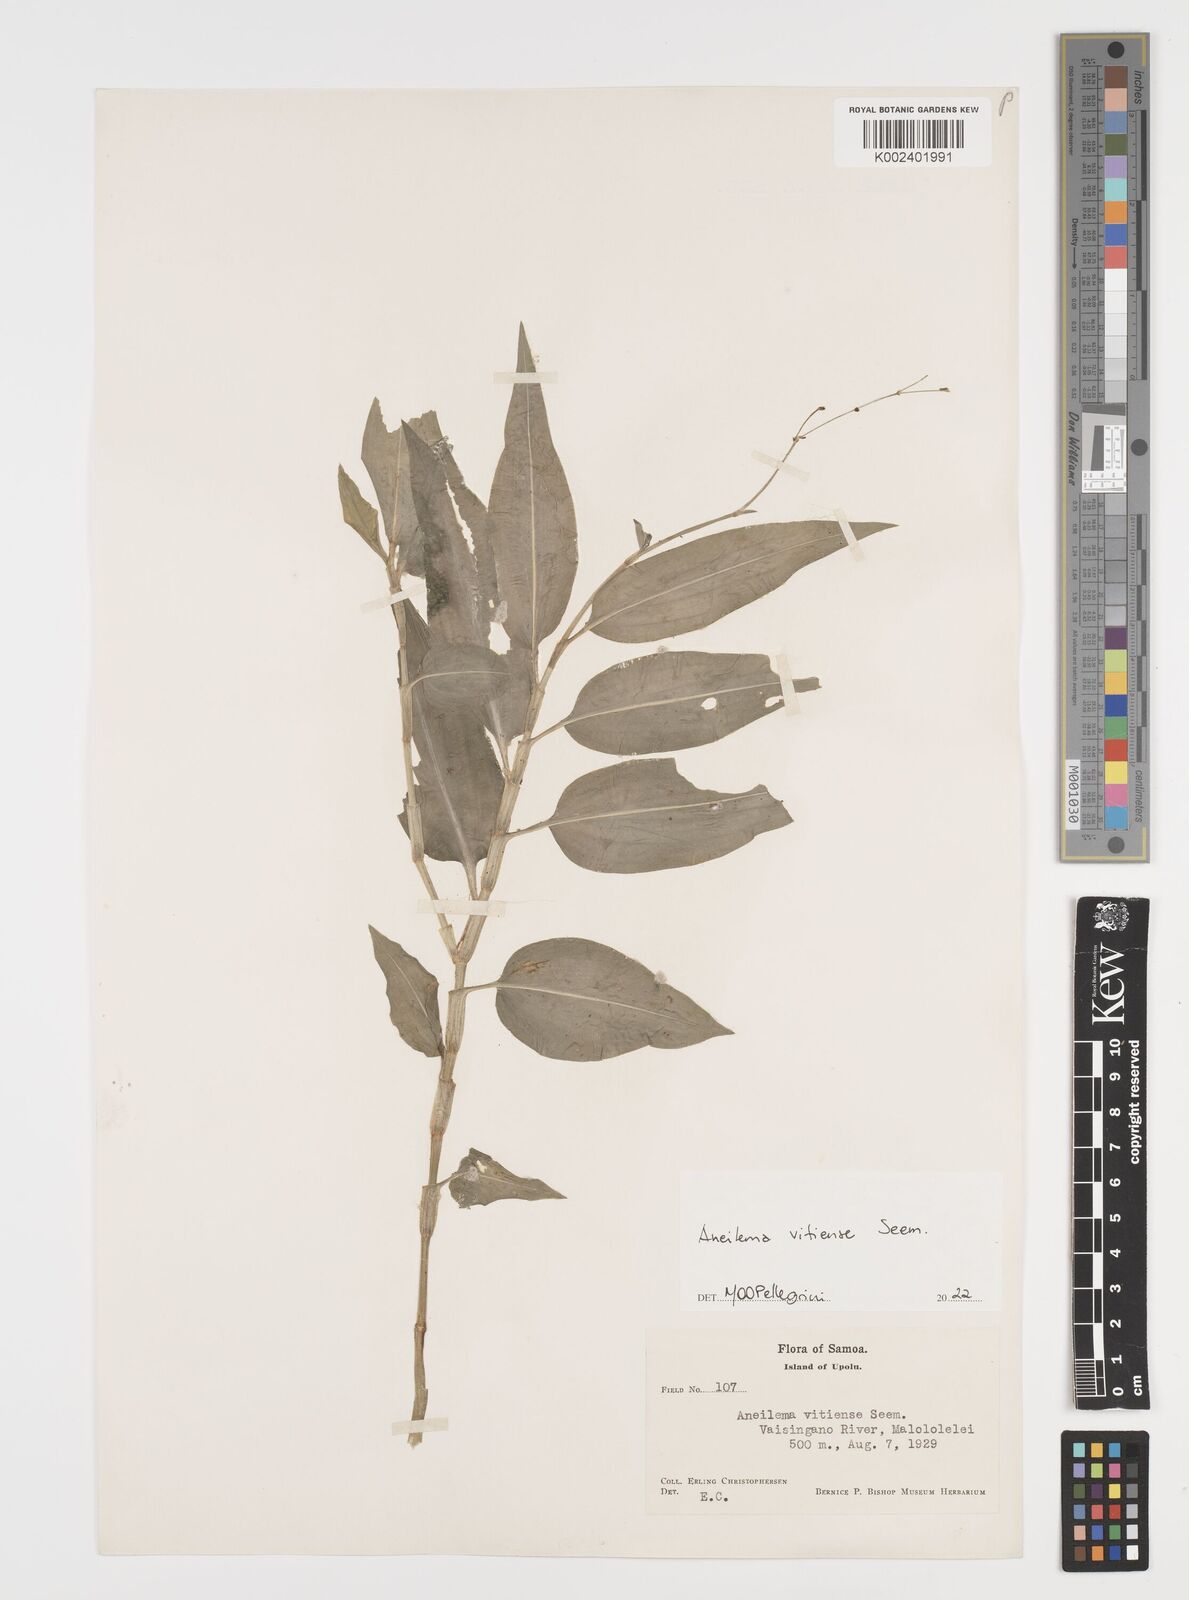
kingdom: Plantae
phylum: Tracheophyta
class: Liliopsida
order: Commelinales
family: Commelinaceae
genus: Rhopalephora
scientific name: Rhopalephora vitiensis
